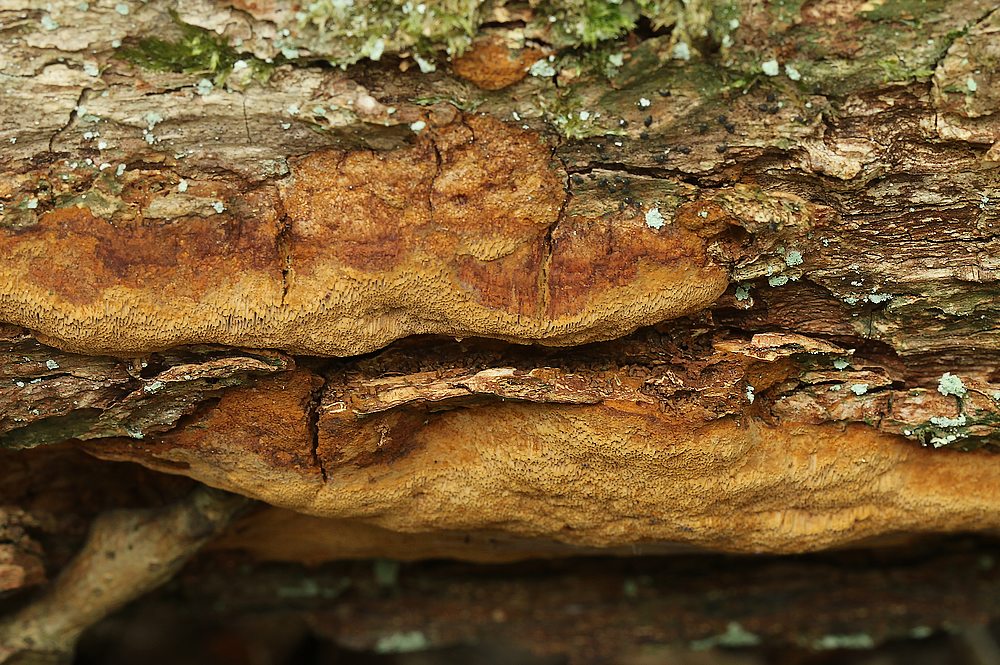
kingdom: Fungi
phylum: Basidiomycota
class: Agaricomycetes
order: Hymenochaetales
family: Hymenochaetaceae
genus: Fuscoporia
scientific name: Fuscoporia ferrea
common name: skorpe-ildporesvamp
